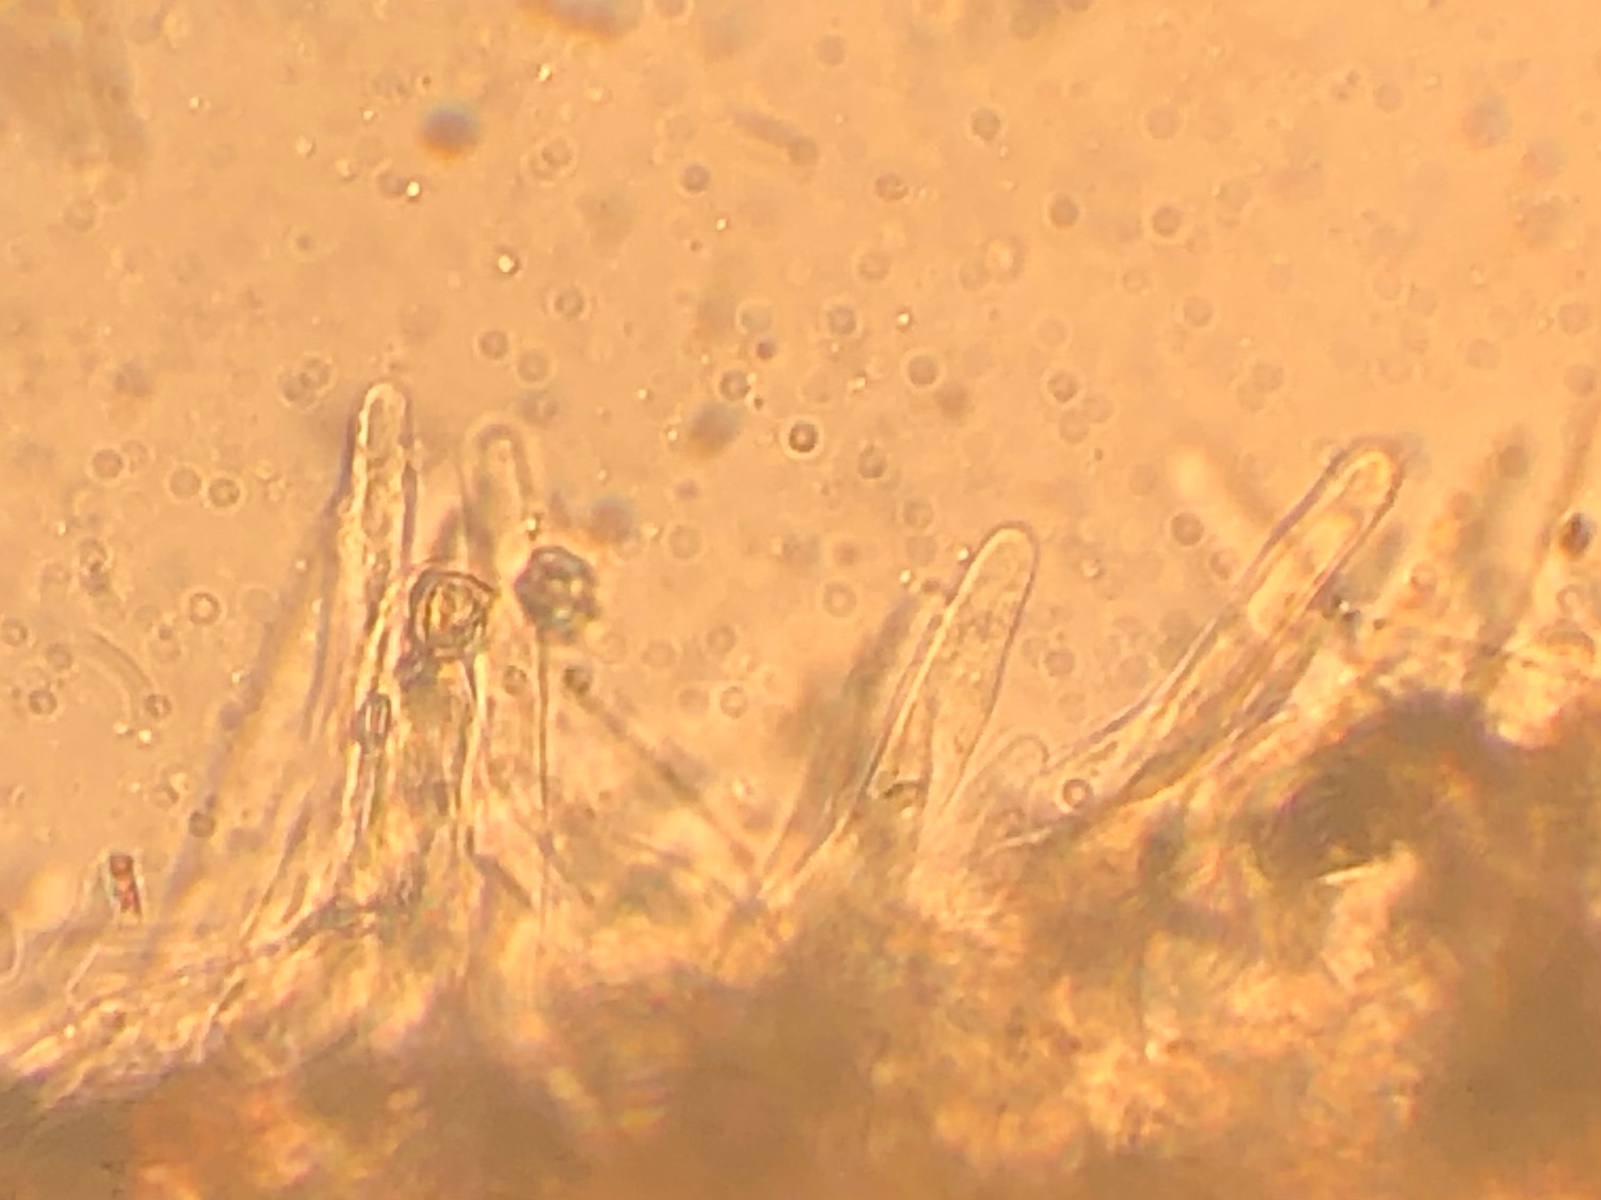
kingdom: Fungi
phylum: Basidiomycota
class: Agaricomycetes
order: Agaricales
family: Entolomataceae
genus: Entoloma
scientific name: Entoloma porphyrogriseum
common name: porfyrgrå rødblad
